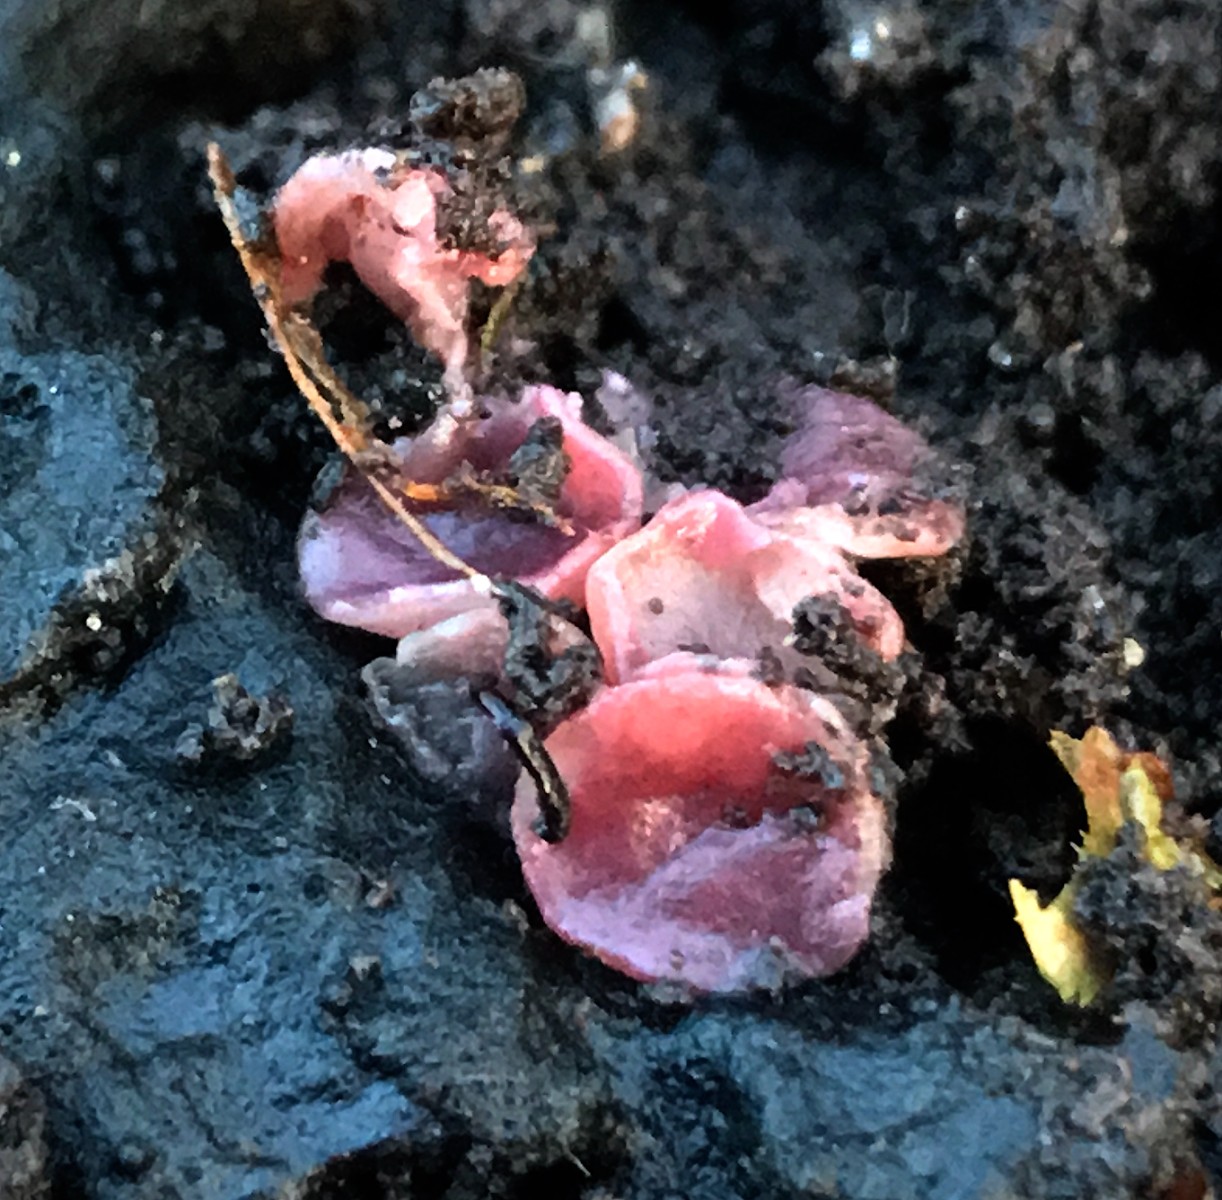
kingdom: Fungi
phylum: Ascomycota
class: Leotiomycetes
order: Helotiales
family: Gelatinodiscaceae
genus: Ascocoryne
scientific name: Ascocoryne cylichnium
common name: stor sejskive
